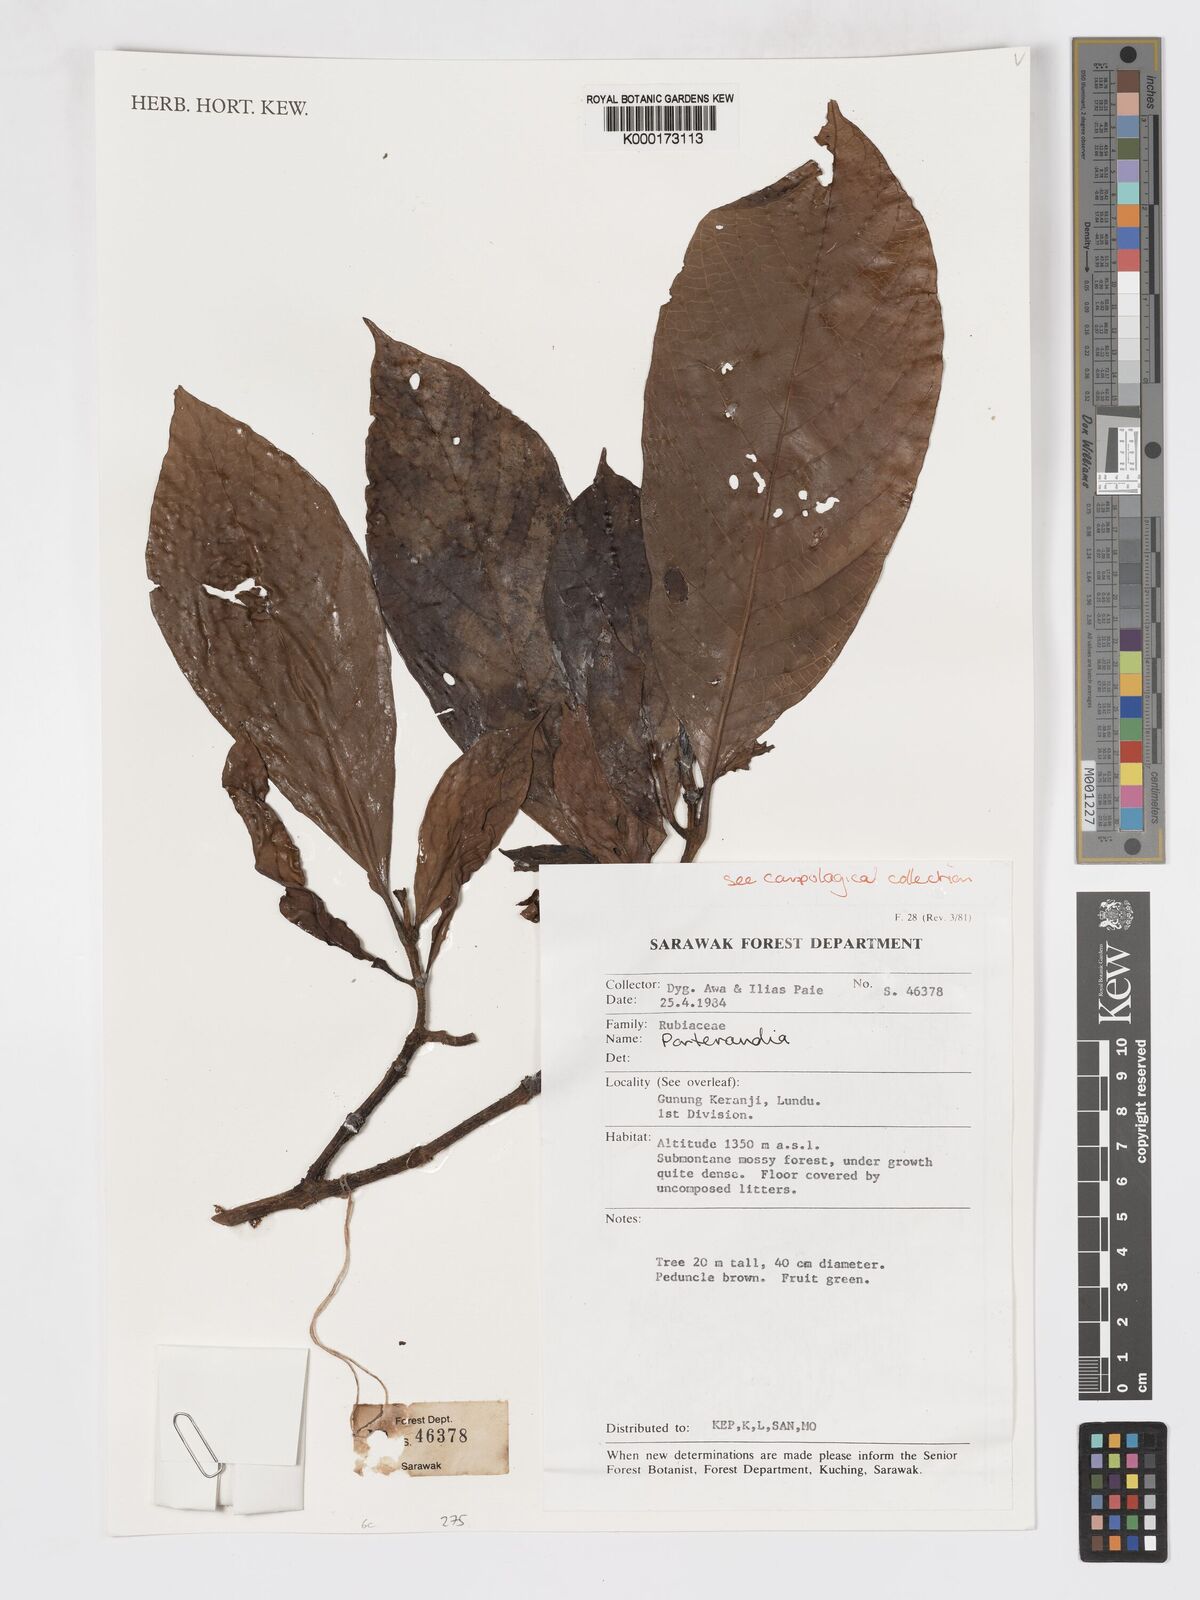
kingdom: Plantae
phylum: Tracheophyta
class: Magnoliopsida
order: Gentianales
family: Rubiaceae
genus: Porterandia
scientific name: Porterandia
